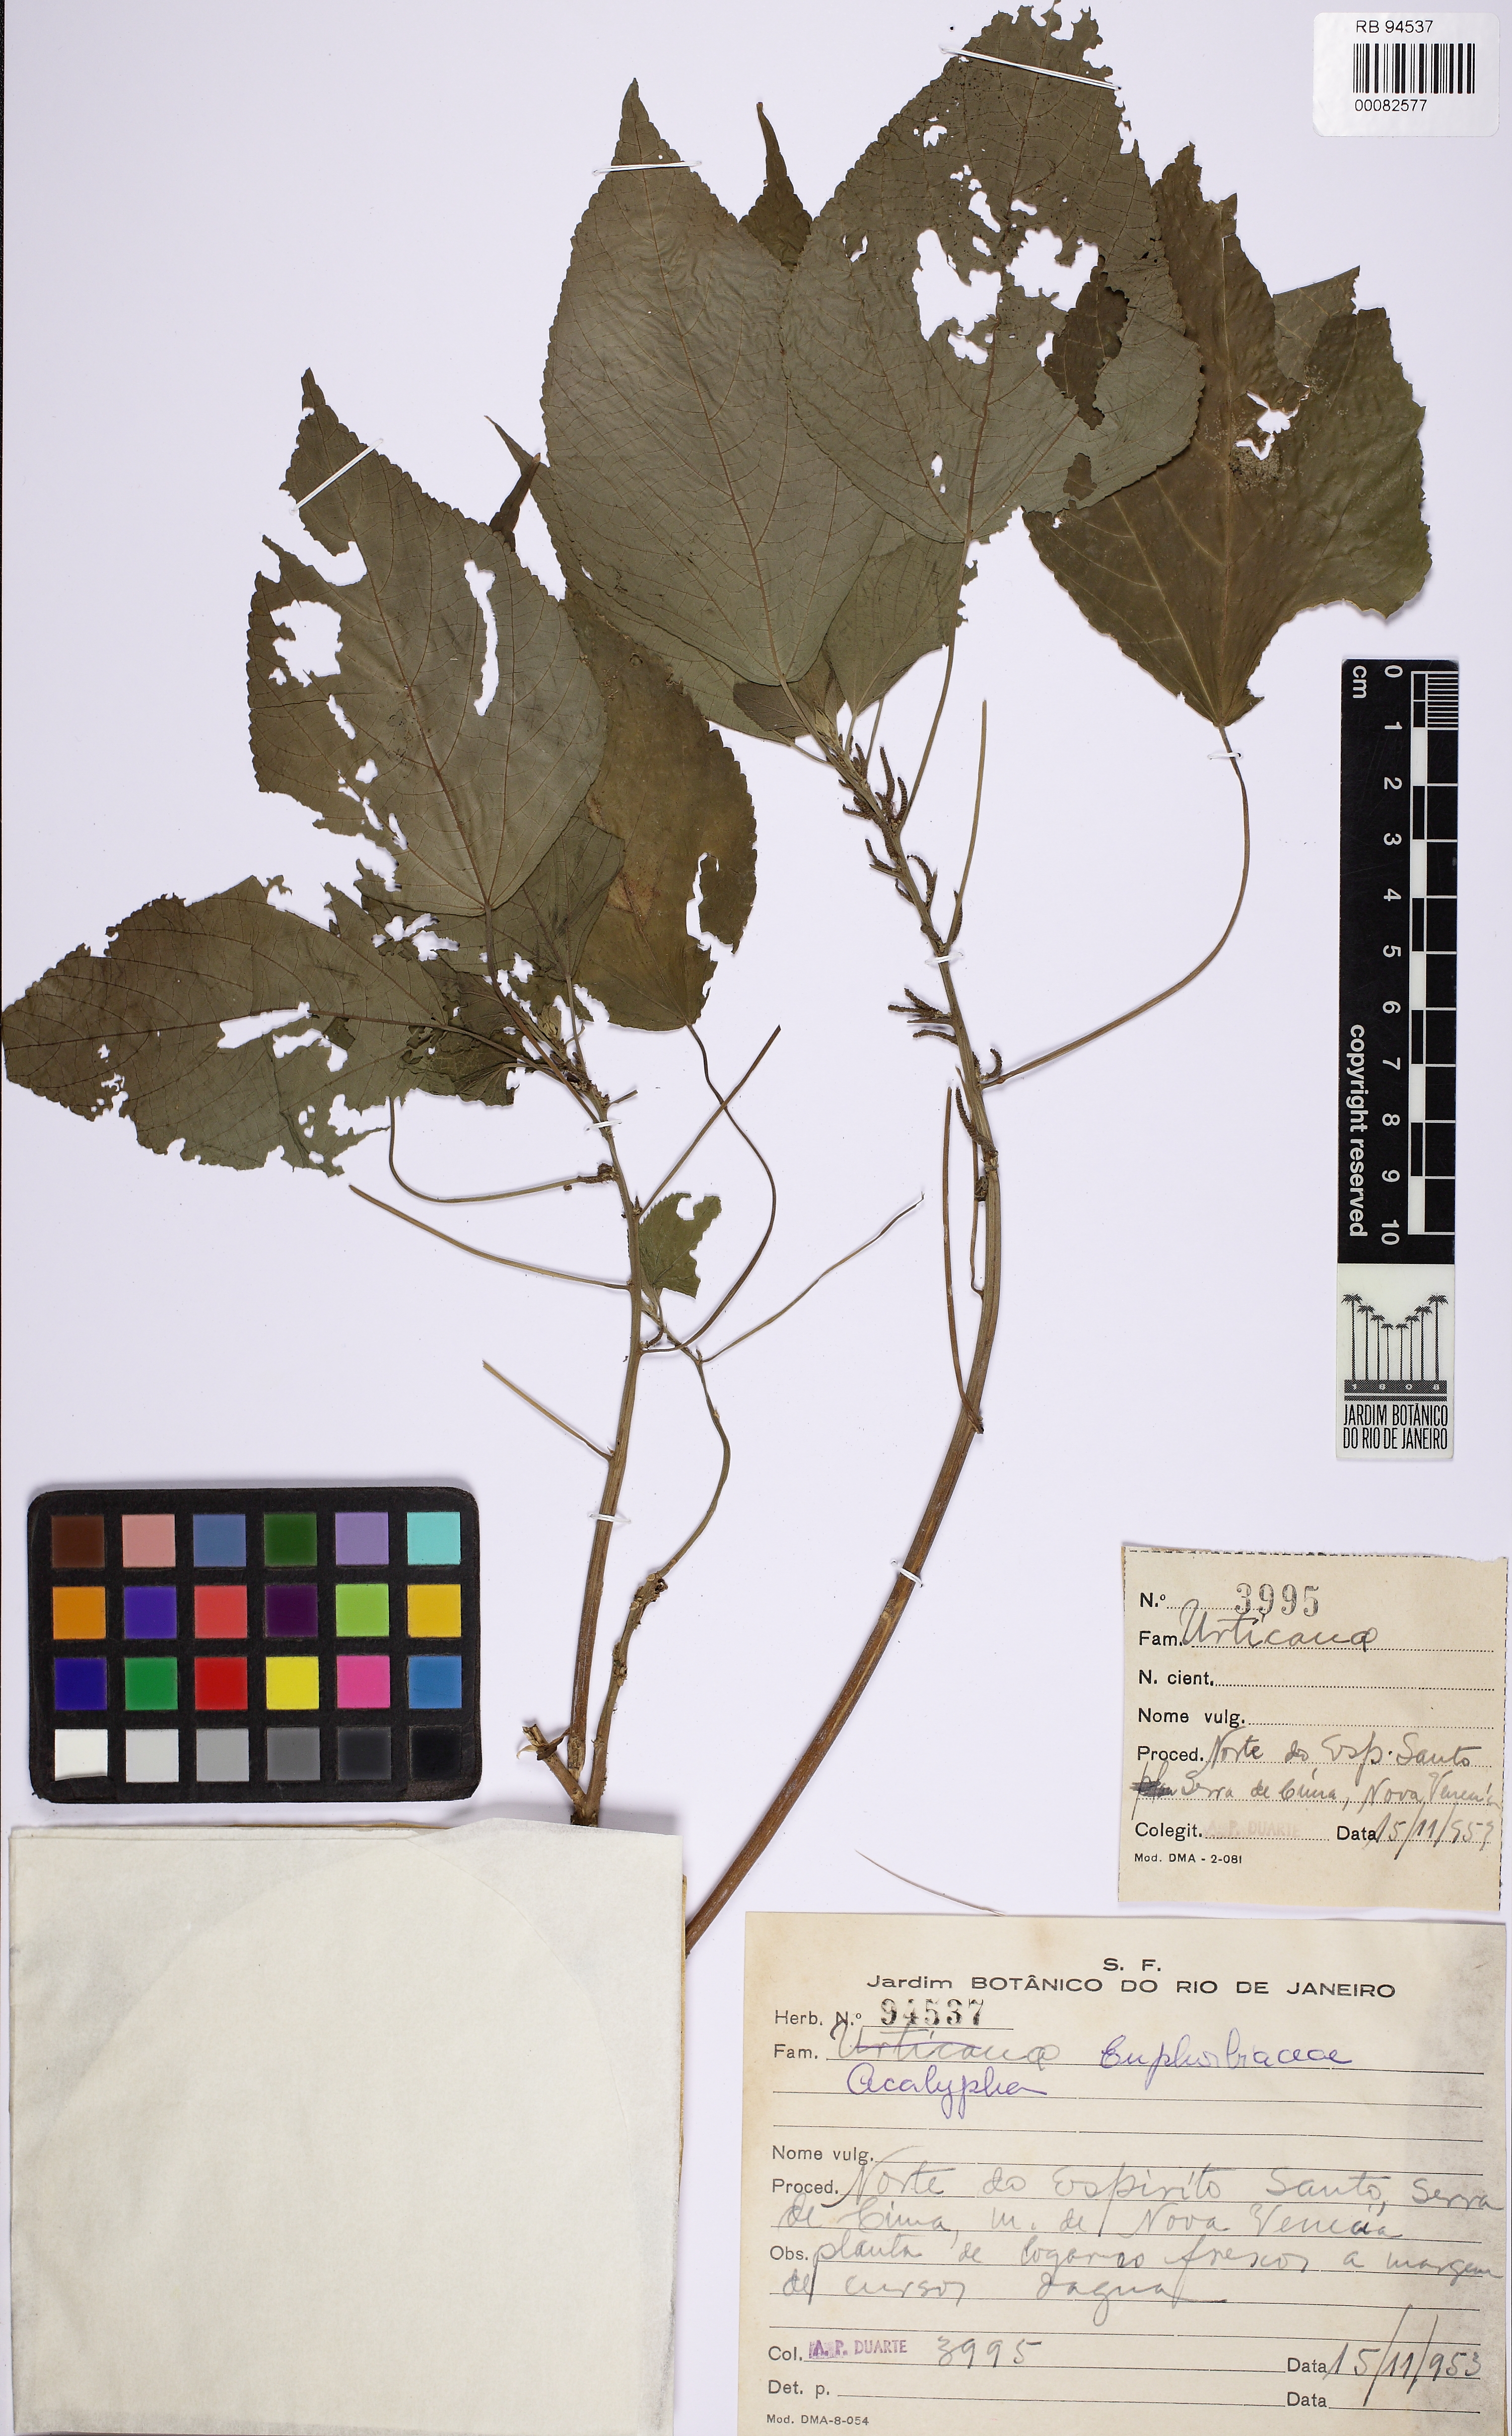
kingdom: Plantae
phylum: Tracheophyta
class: Magnoliopsida
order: Malpighiales
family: Euphorbiaceae
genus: Acalypha
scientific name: Acalypha brasiliensis
